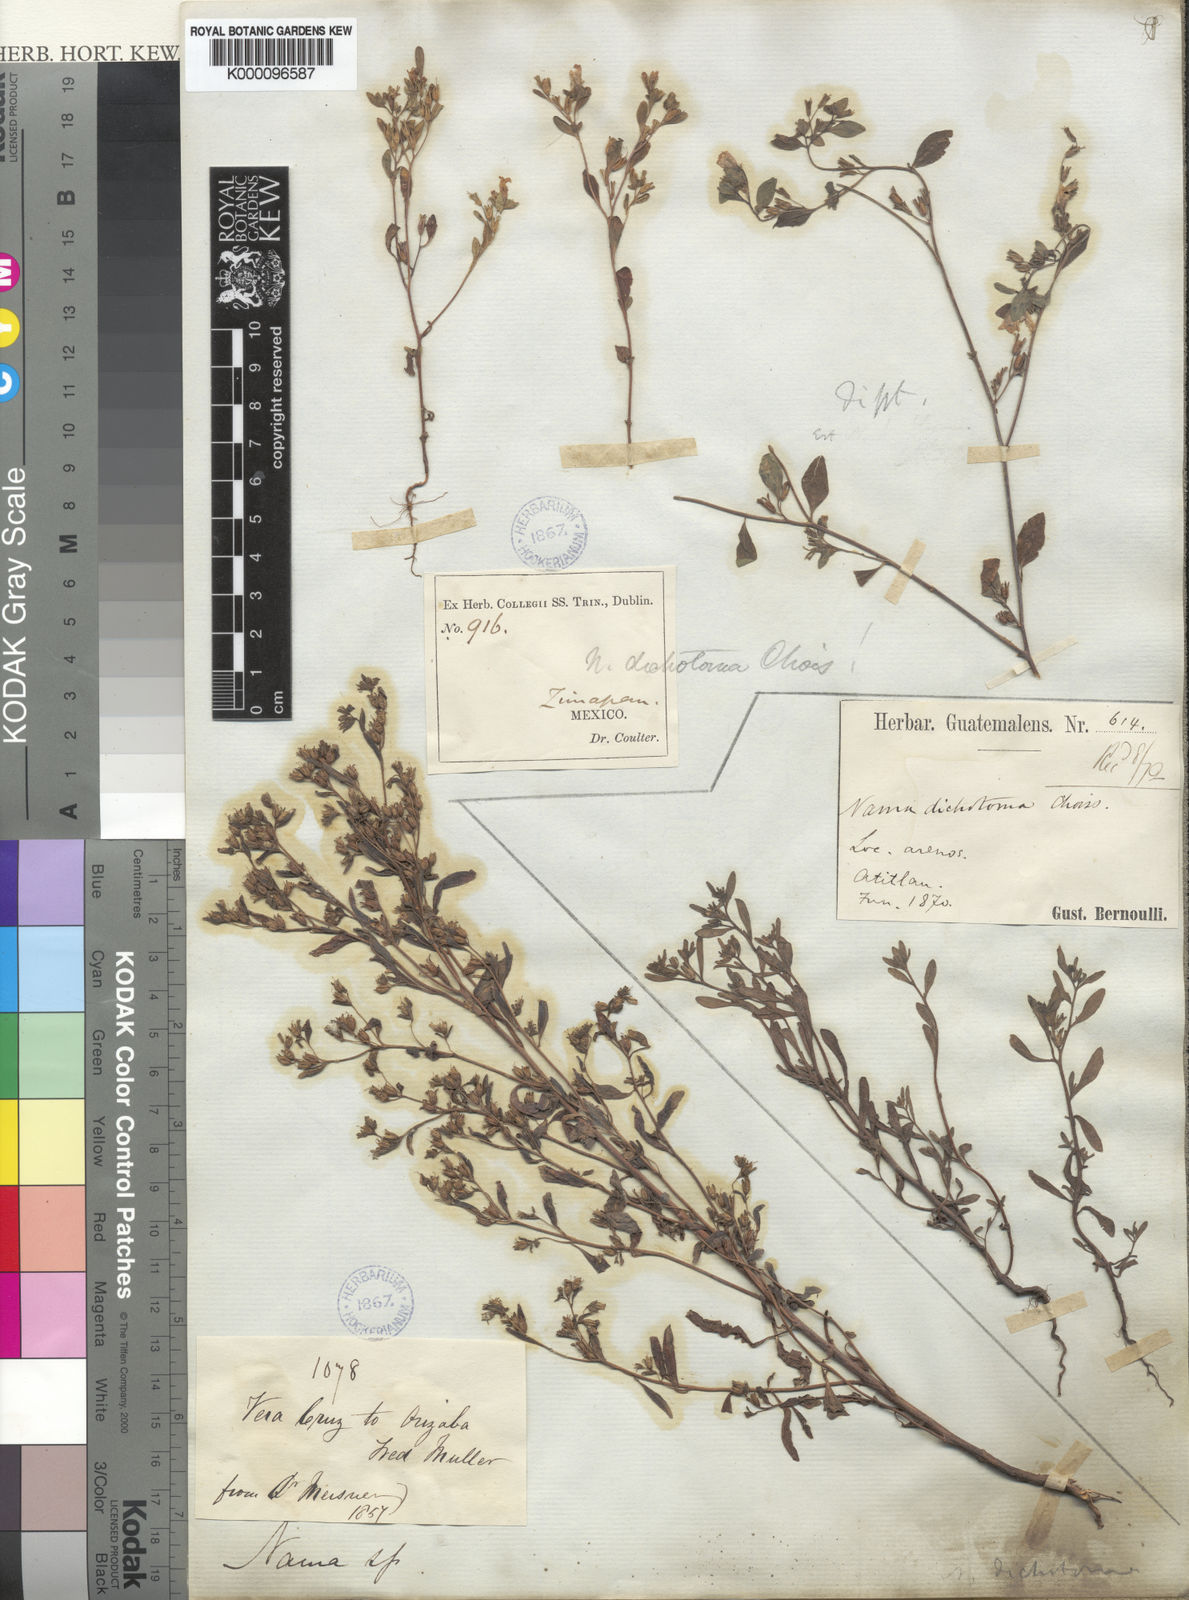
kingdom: Plantae
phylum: Tracheophyta
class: Magnoliopsida
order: Boraginales
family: Namaceae
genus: Nama
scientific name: Nama dichotoma
